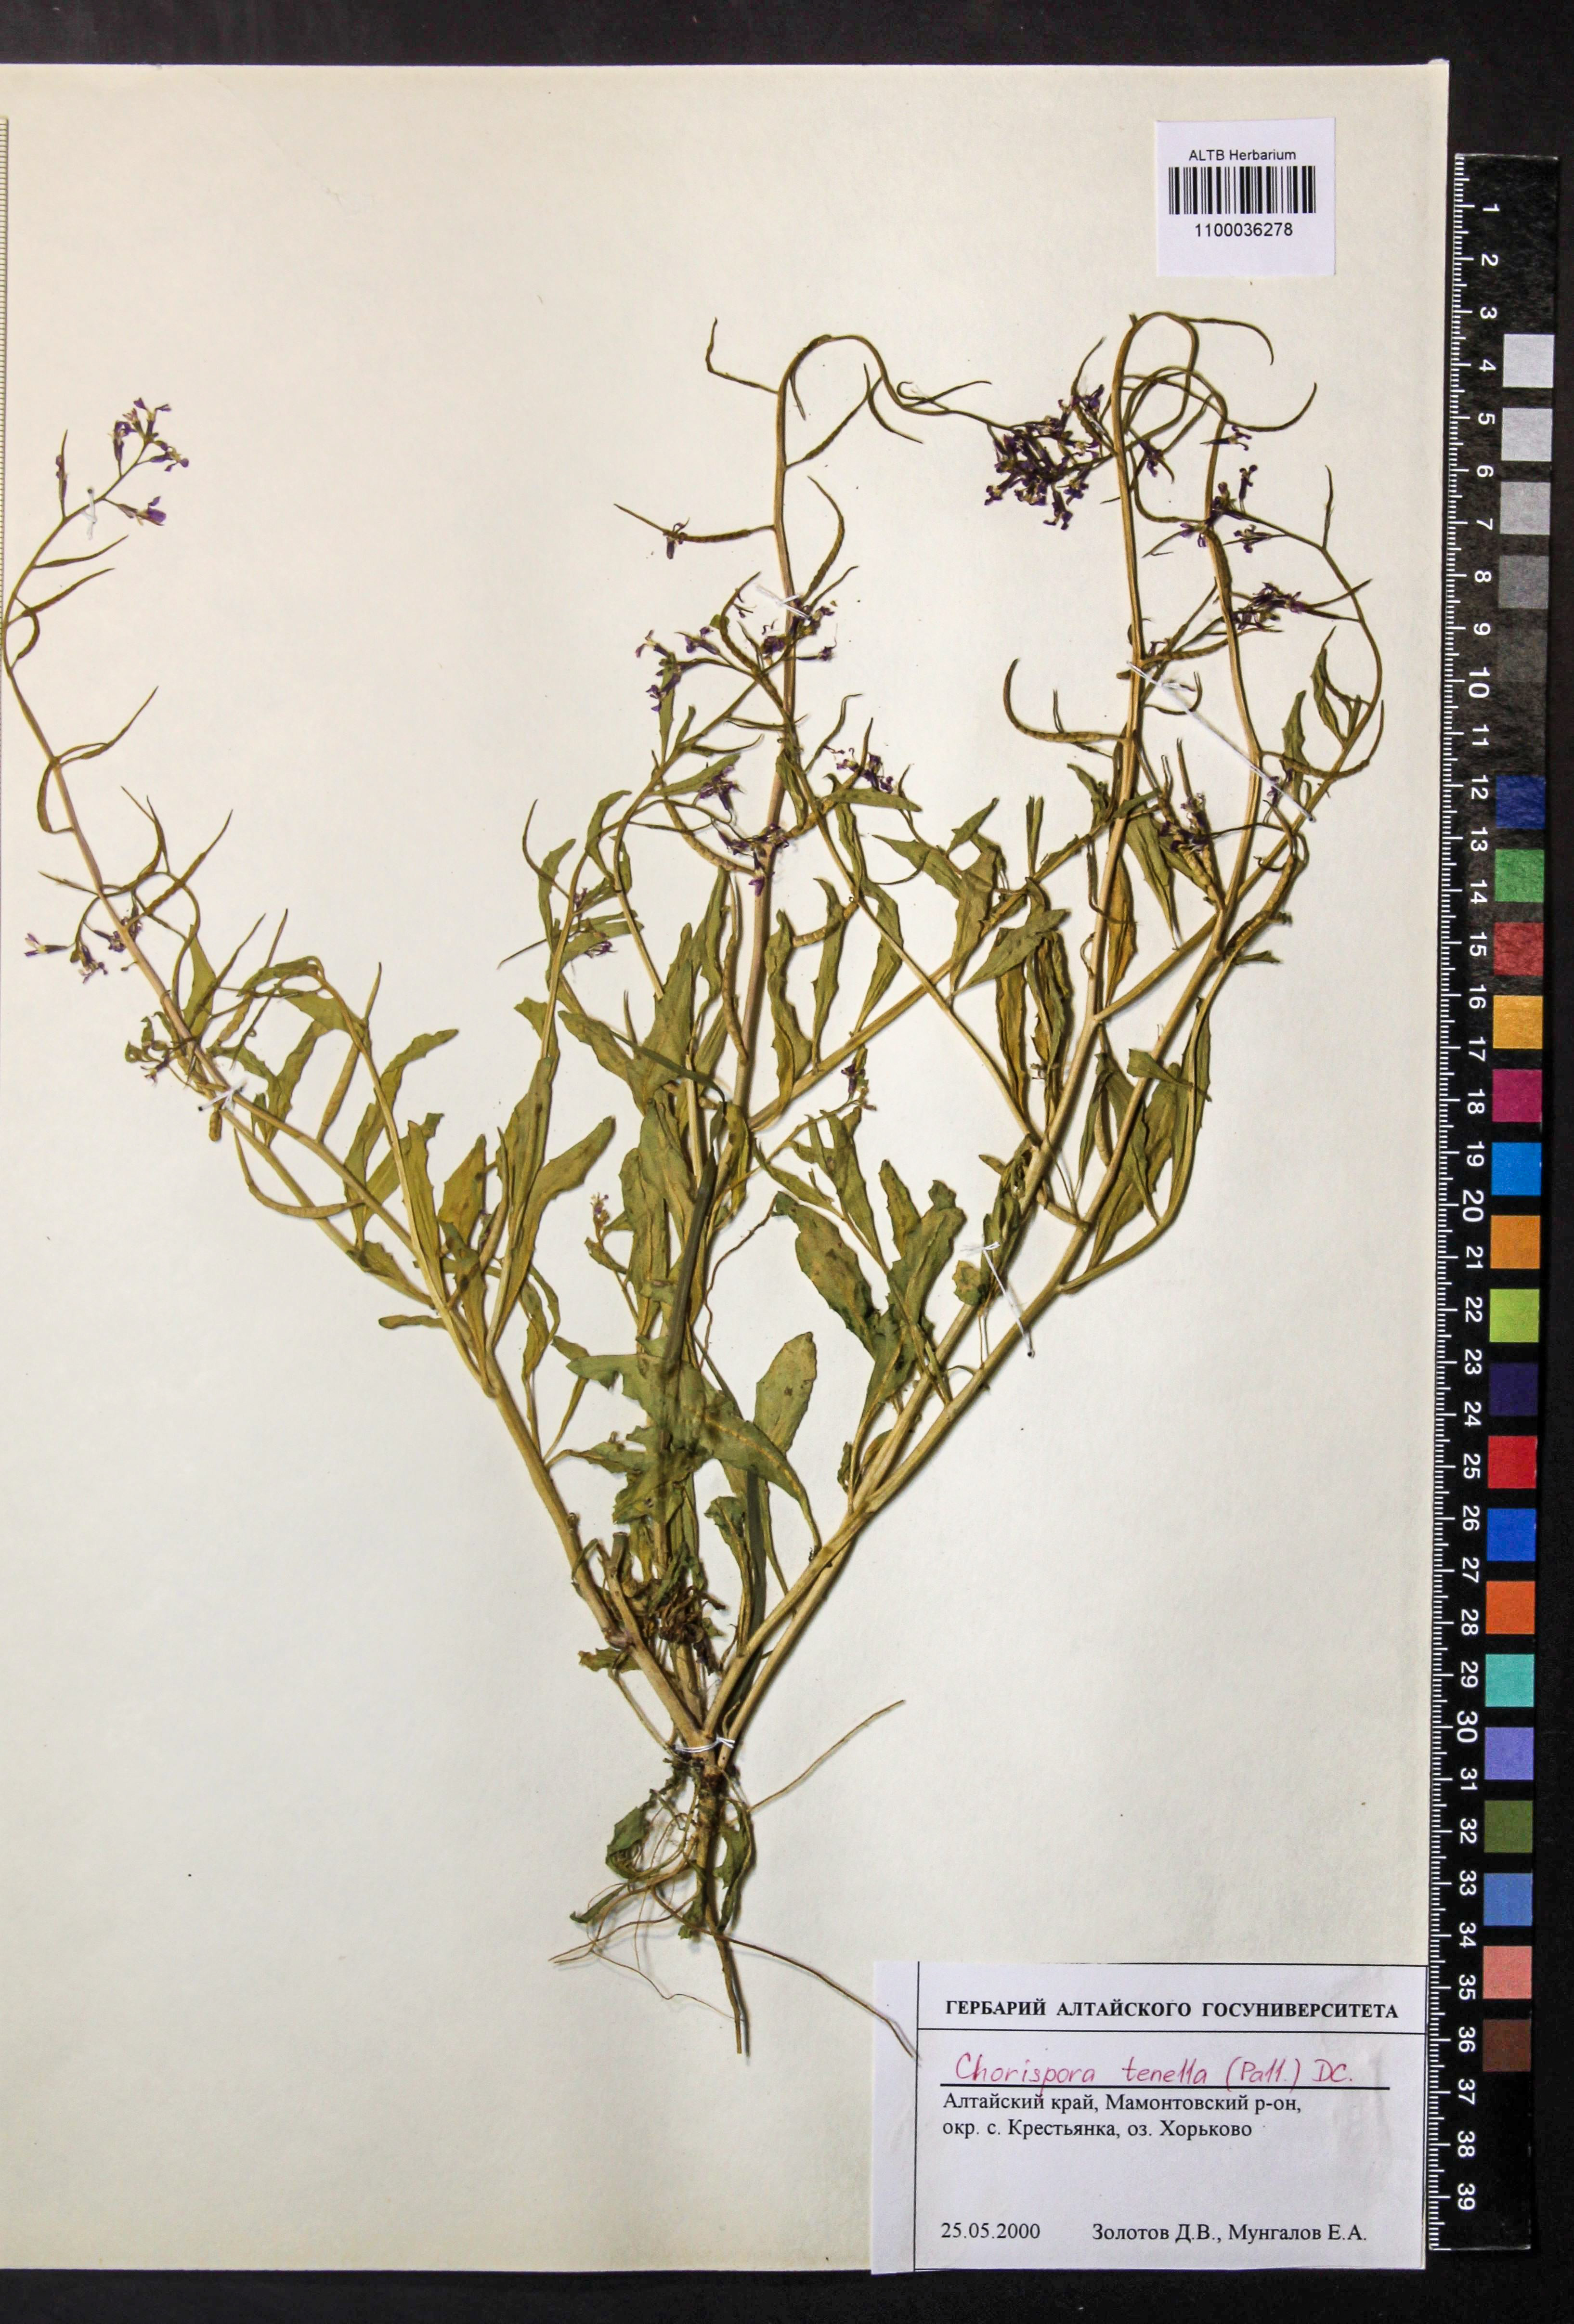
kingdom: Plantae
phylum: Tracheophyta
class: Magnoliopsida
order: Brassicales
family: Brassicaceae
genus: Chorispora
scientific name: Chorispora tenella
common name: Crossflower
